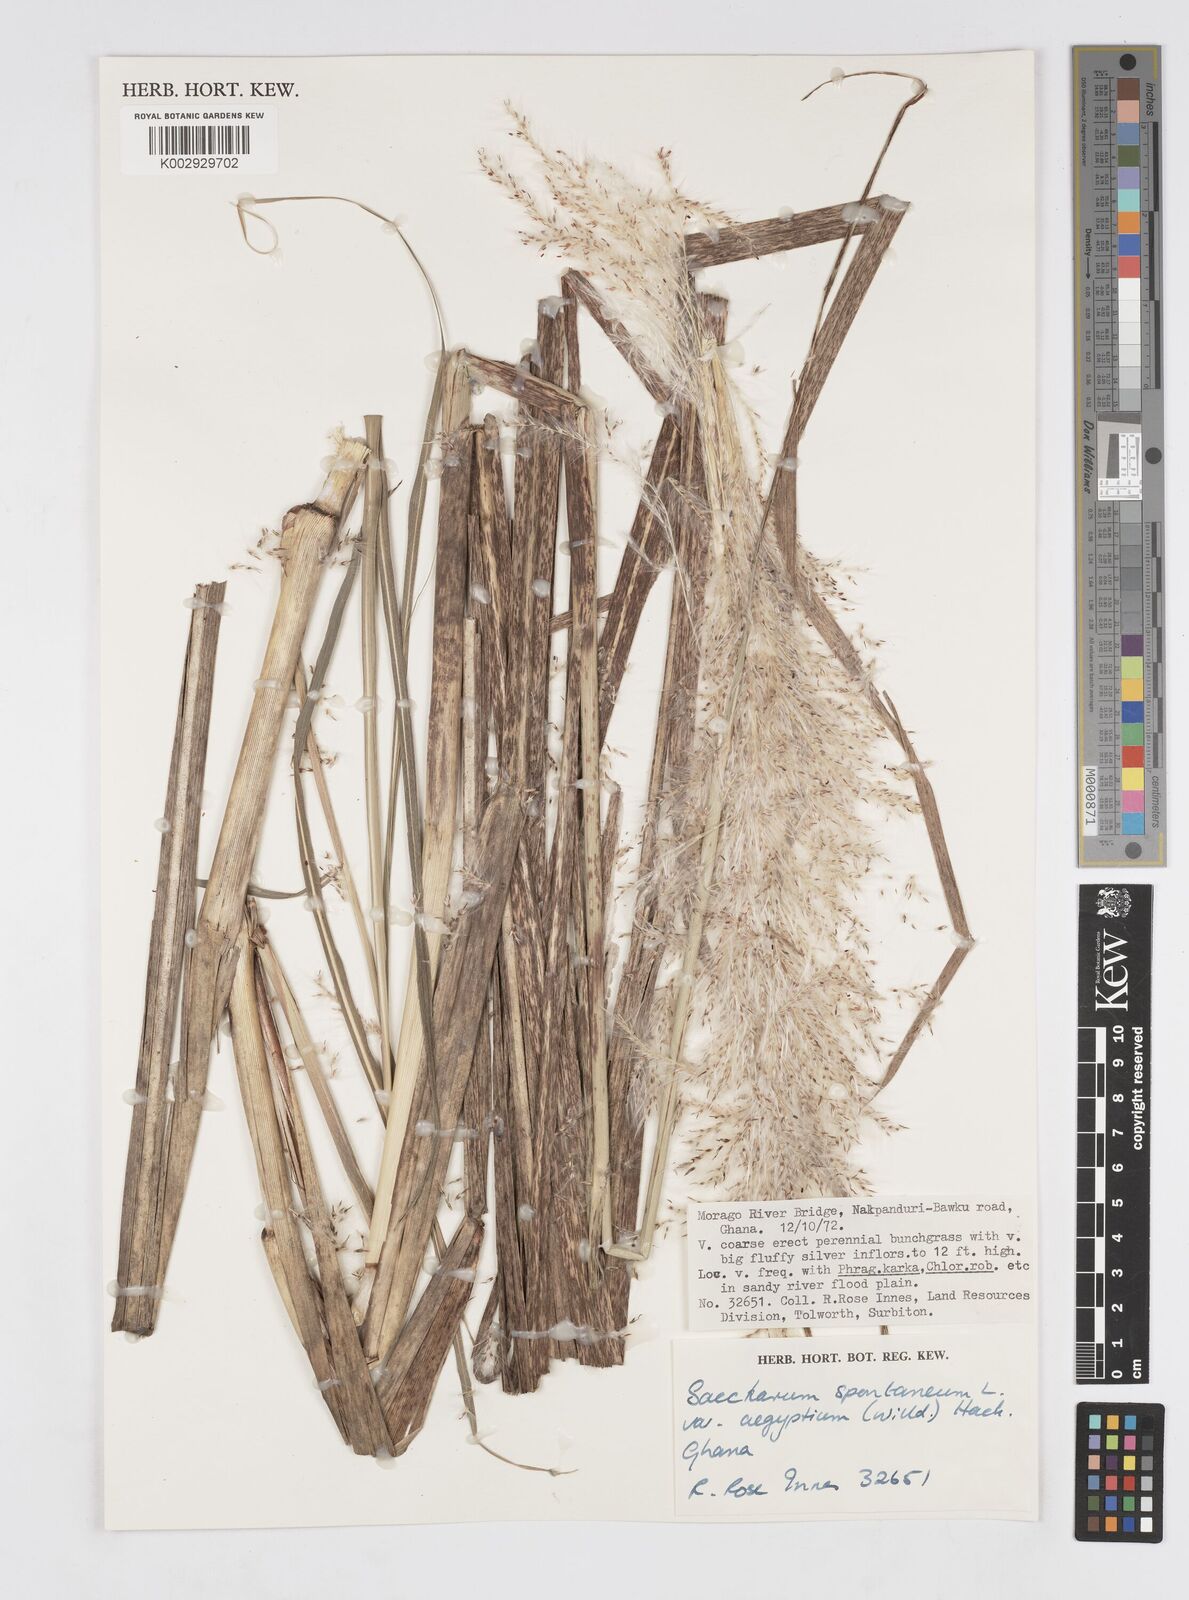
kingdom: Plantae
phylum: Tracheophyta
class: Liliopsida
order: Poales
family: Poaceae
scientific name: Poaceae
